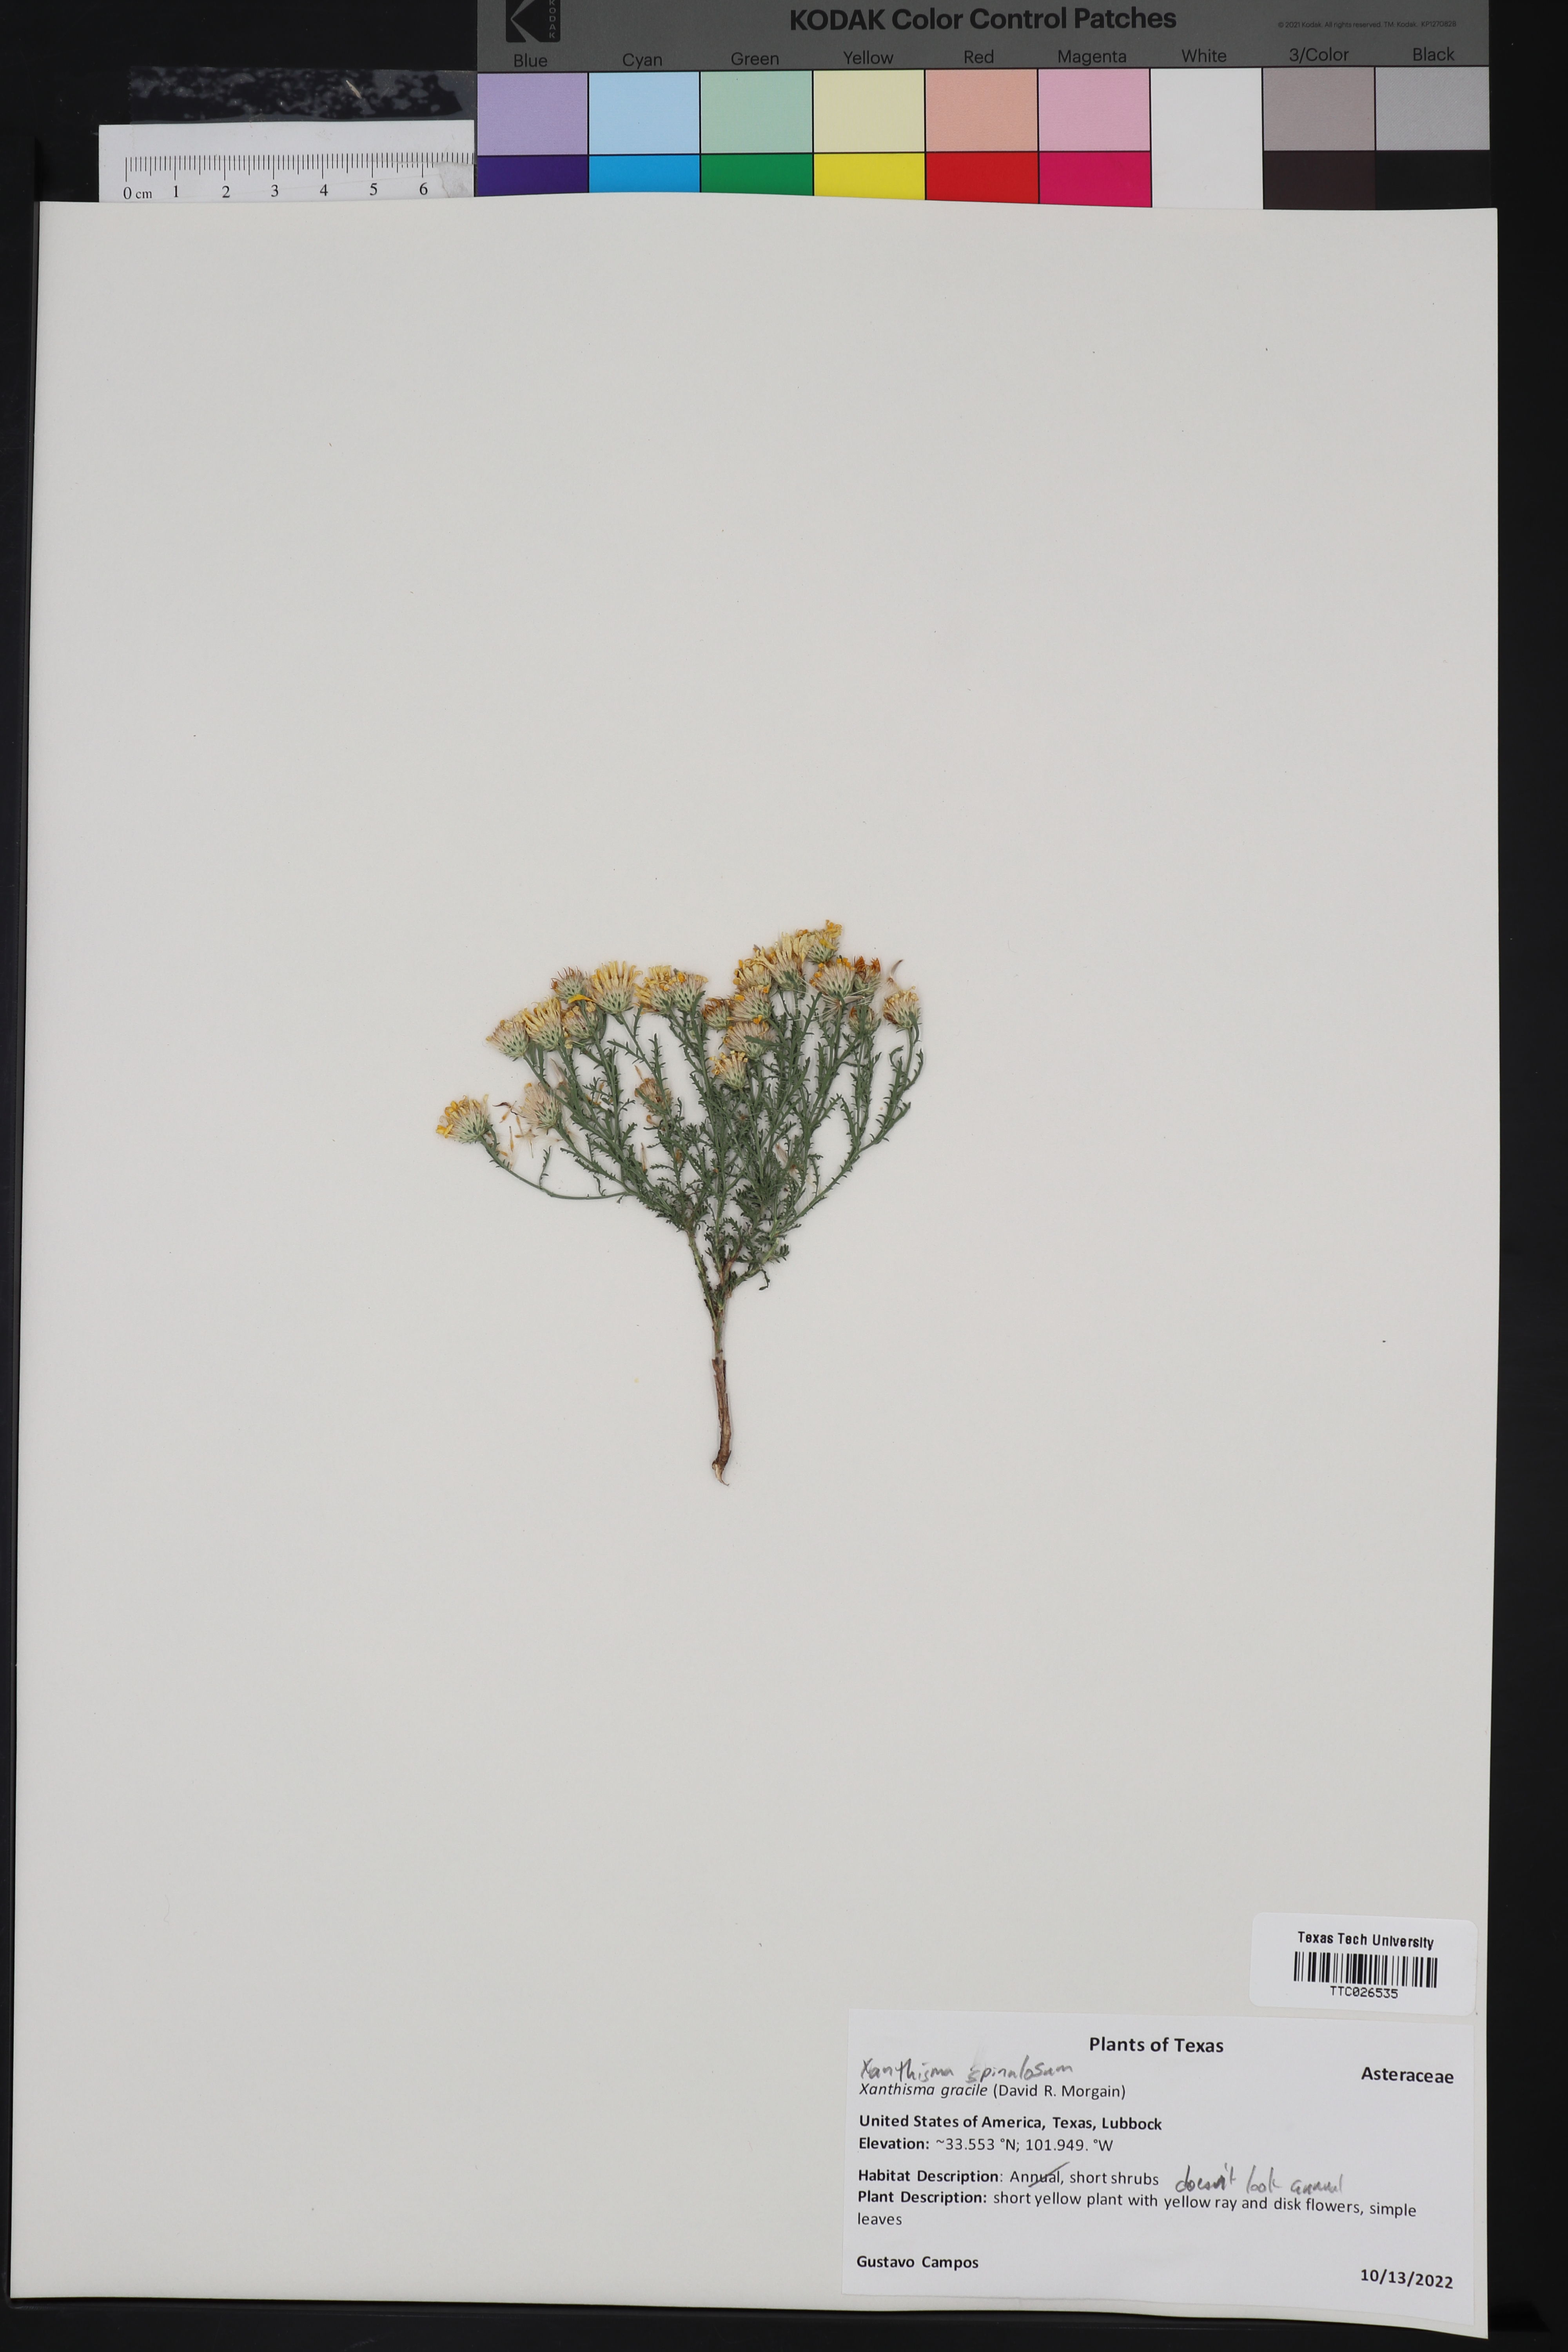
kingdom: Plantae
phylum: Tracheophyta
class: Magnoliopsida
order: Asterales
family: Asteraceae
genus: Xanthisma
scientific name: Xanthisma spinulosum
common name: Spiny goldenweed
